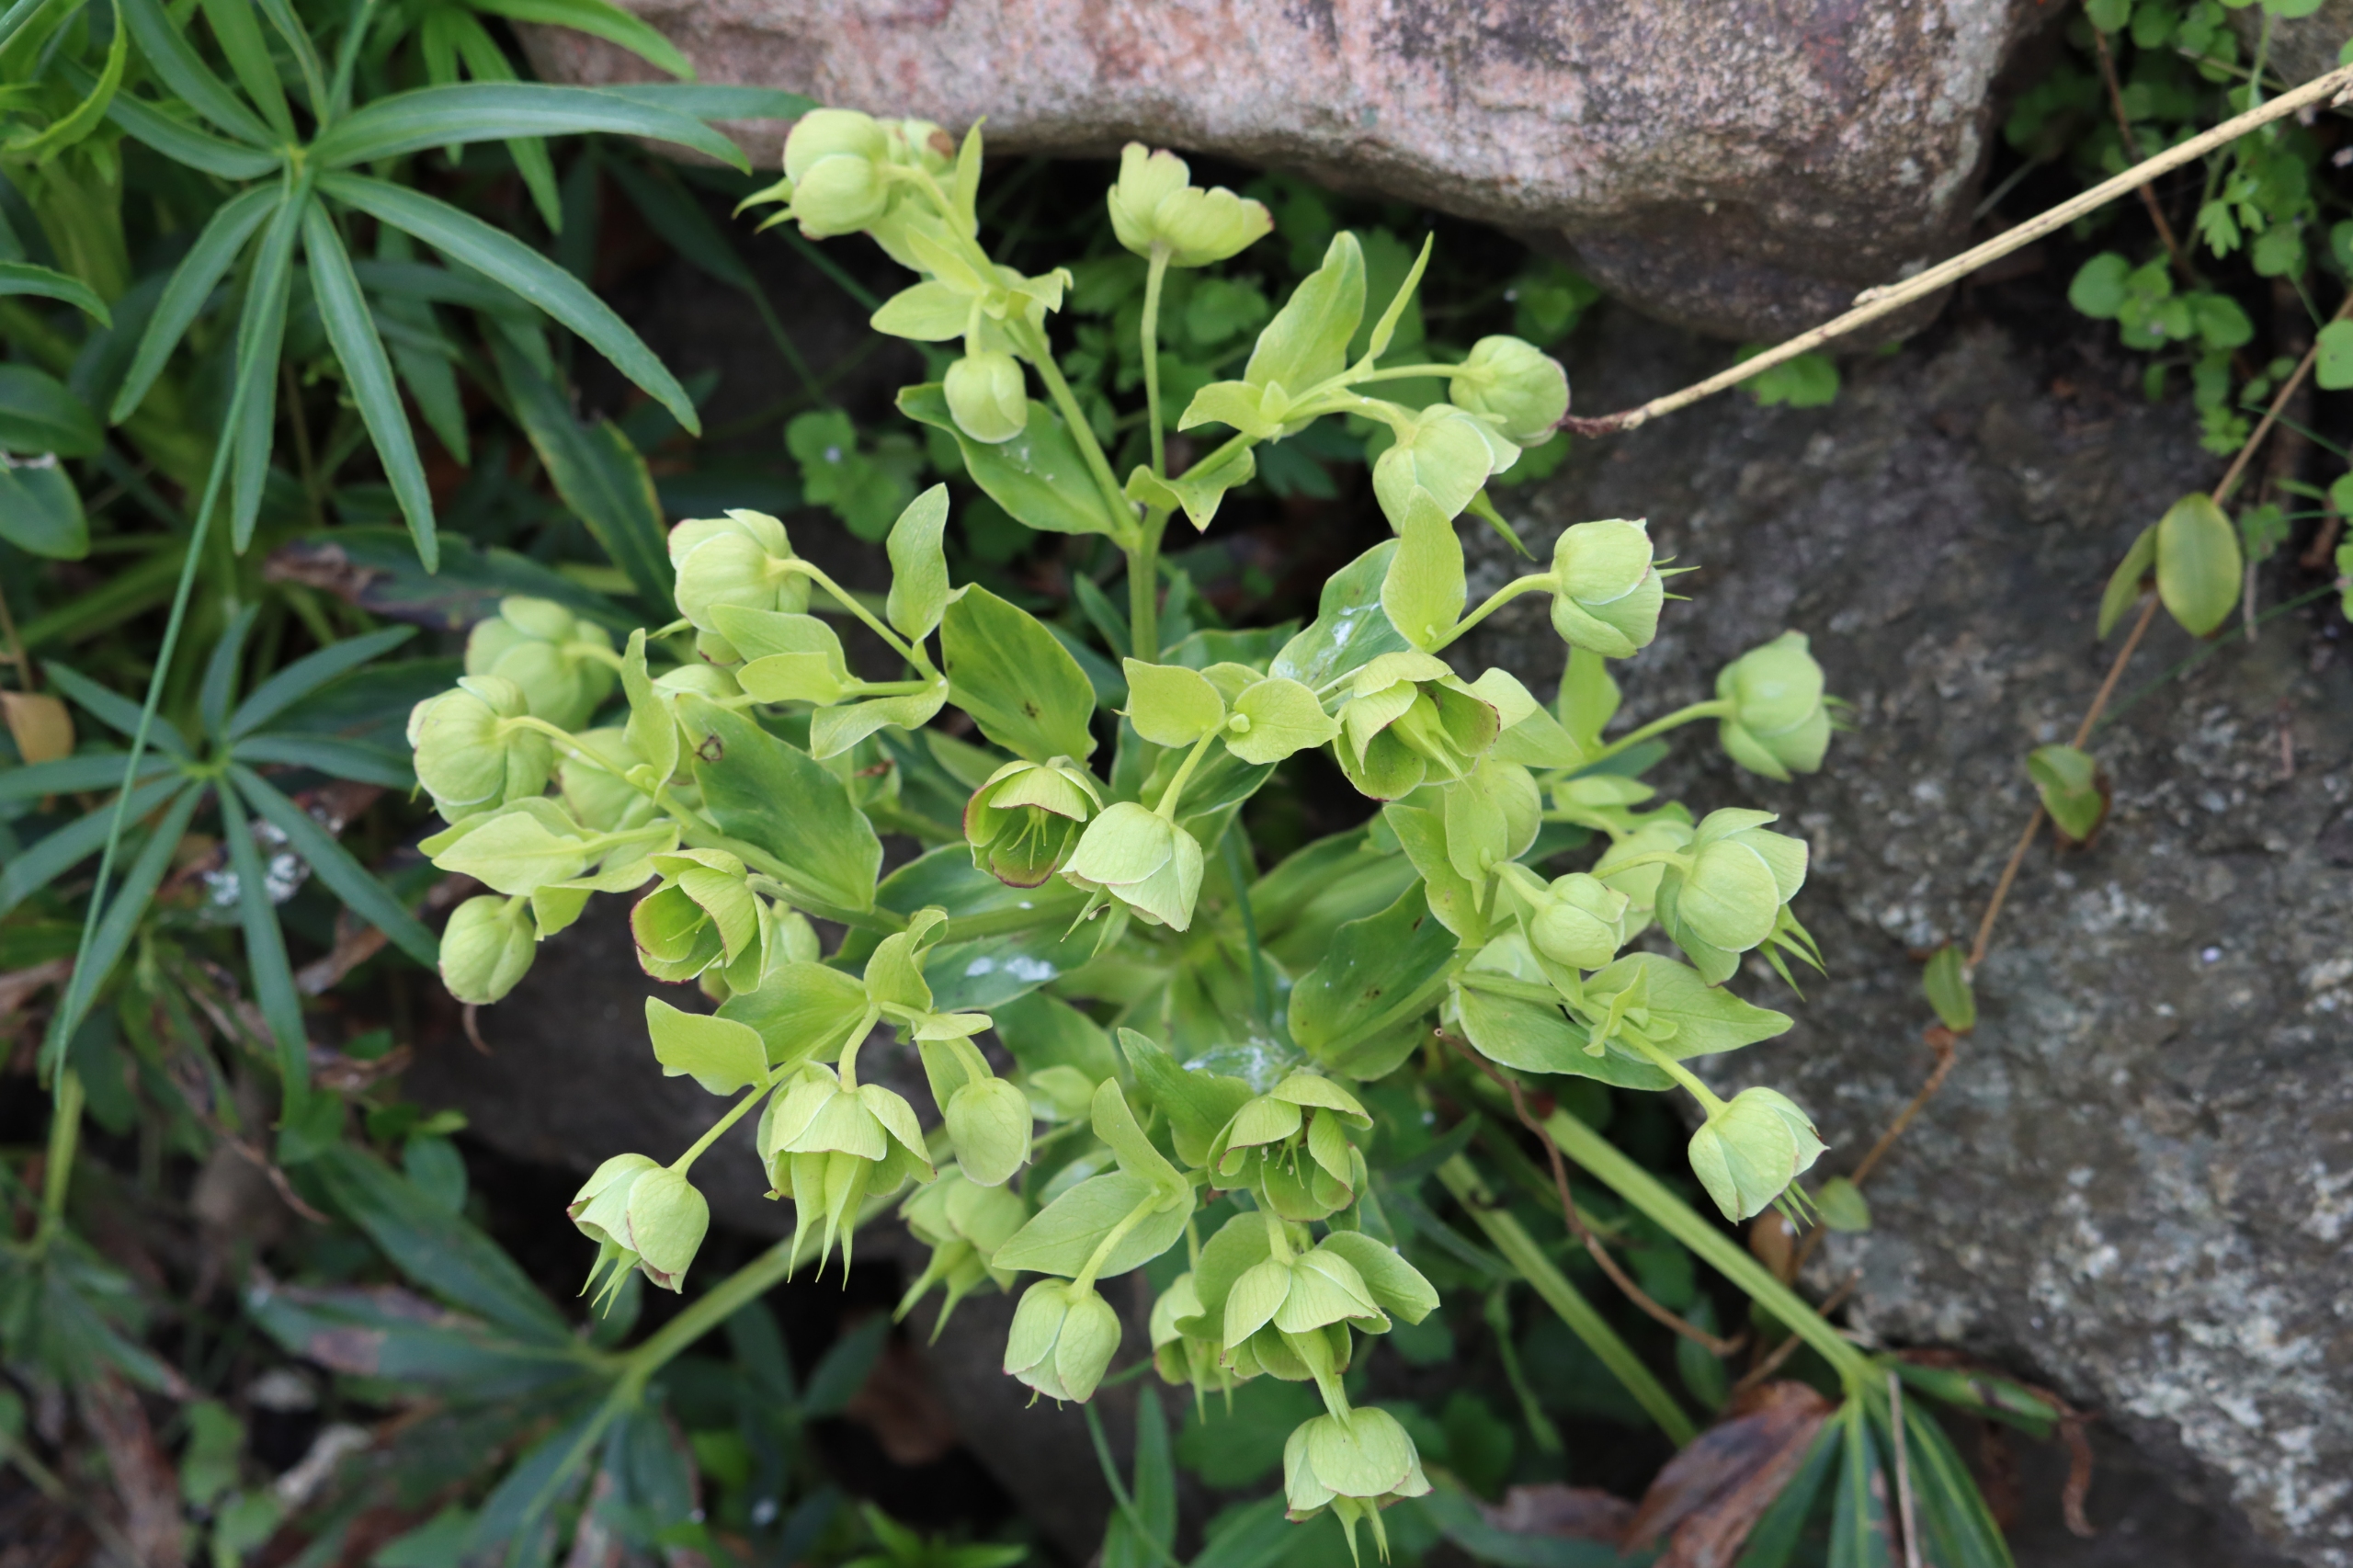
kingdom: Plantae
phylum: Tracheophyta
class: Magnoliopsida
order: Ranunculales
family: Ranunculaceae
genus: Helleborus
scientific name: Helleborus foetidus
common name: Stinkende julerose
